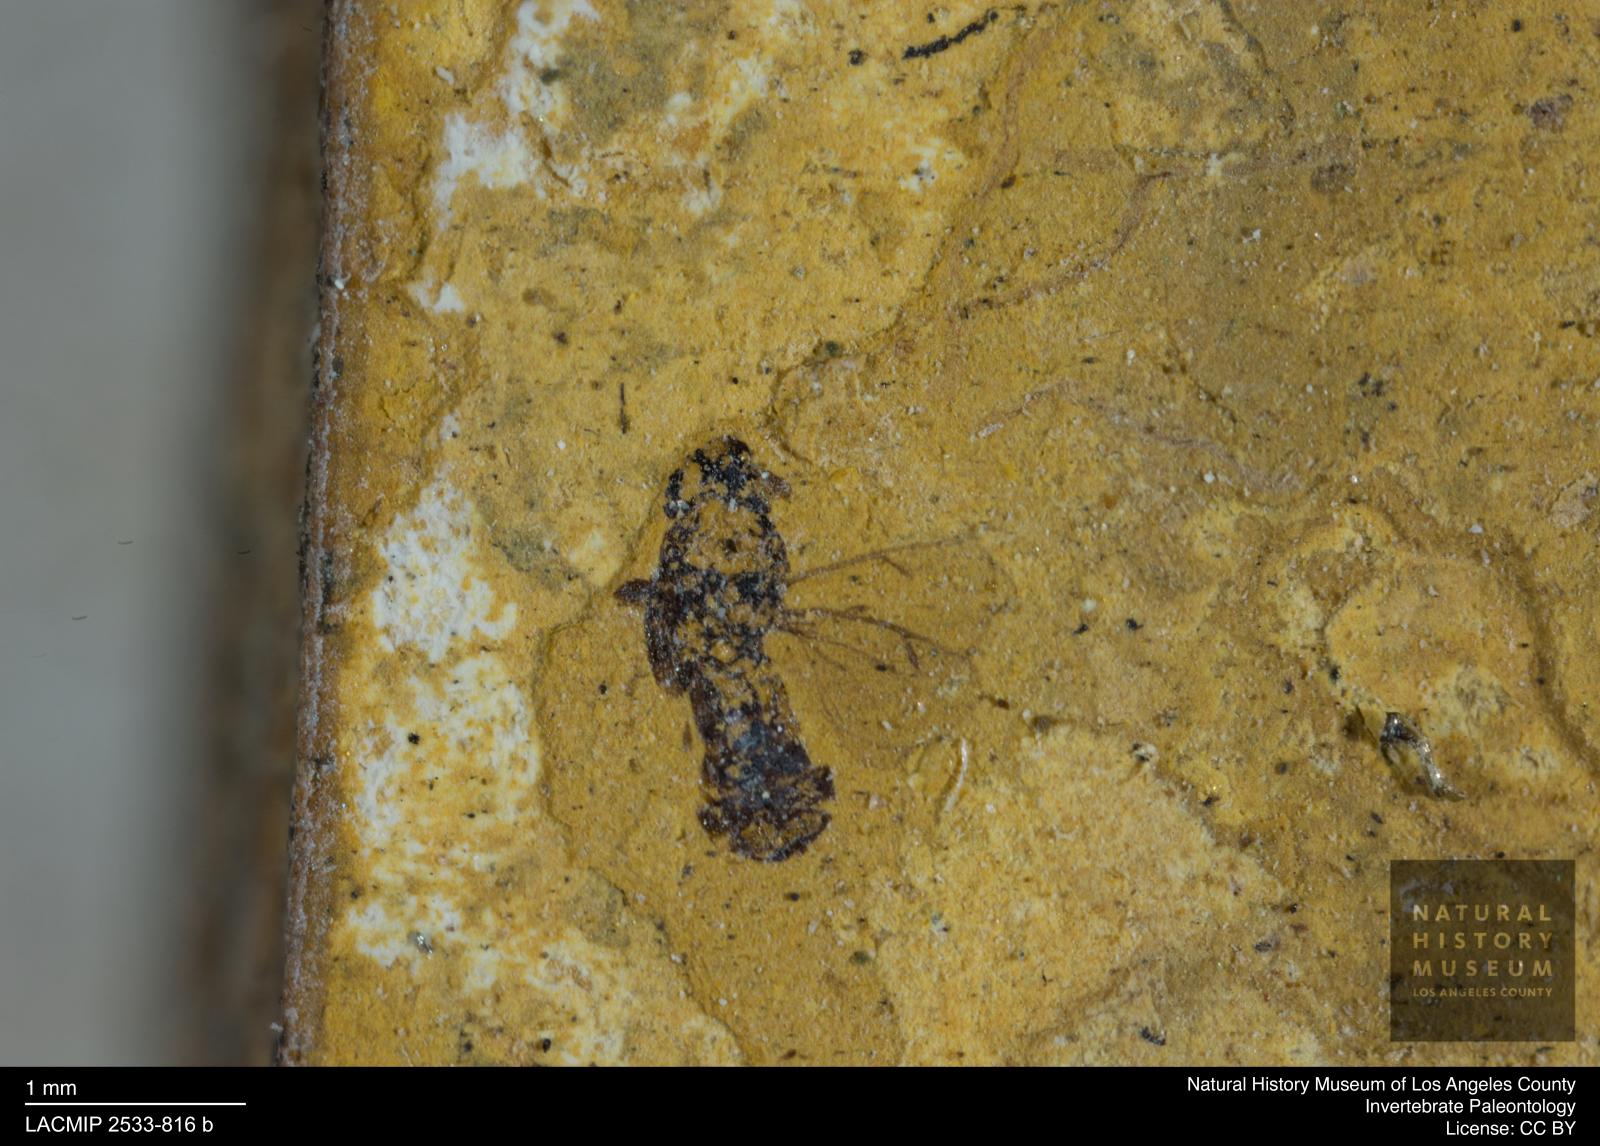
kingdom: Animalia
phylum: Arthropoda
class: Insecta
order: Hymenoptera
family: Eulophidae
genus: Eulophus
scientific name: Eulophus elegantulus
